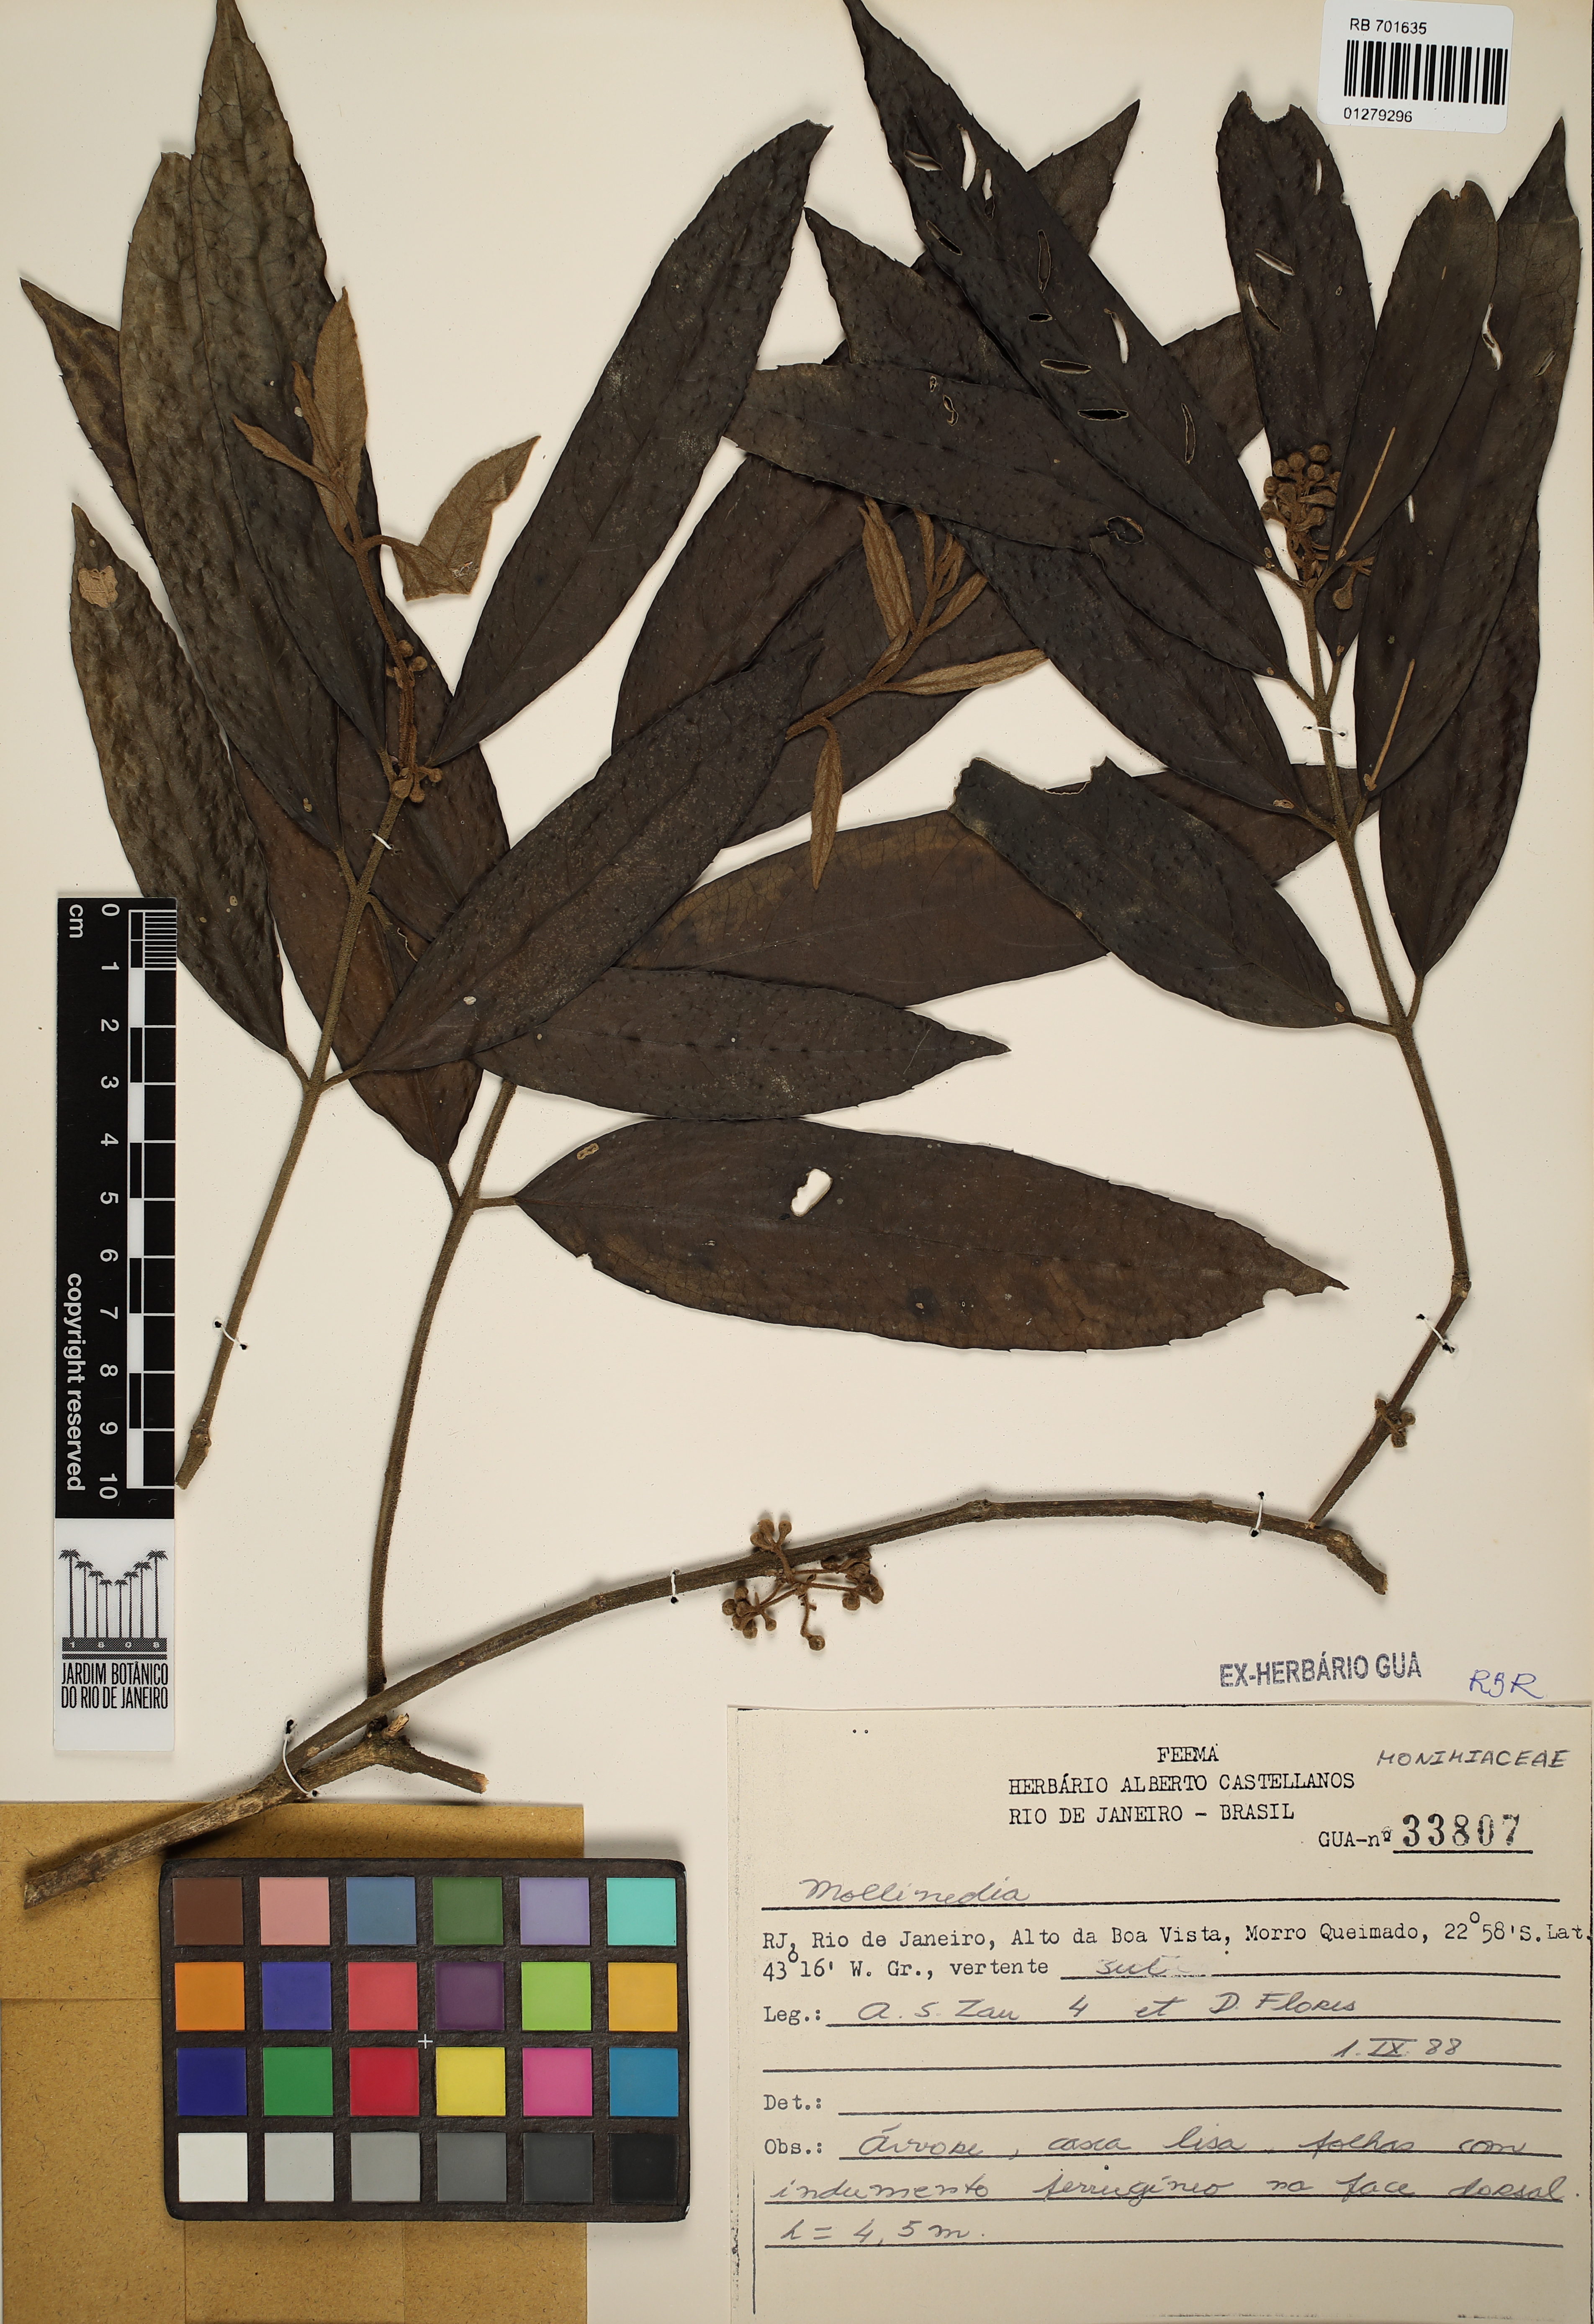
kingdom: Plantae
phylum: Tracheophyta
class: Magnoliopsida
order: Laurales
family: Monimiaceae
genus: Mollinedia
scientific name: Mollinedia
